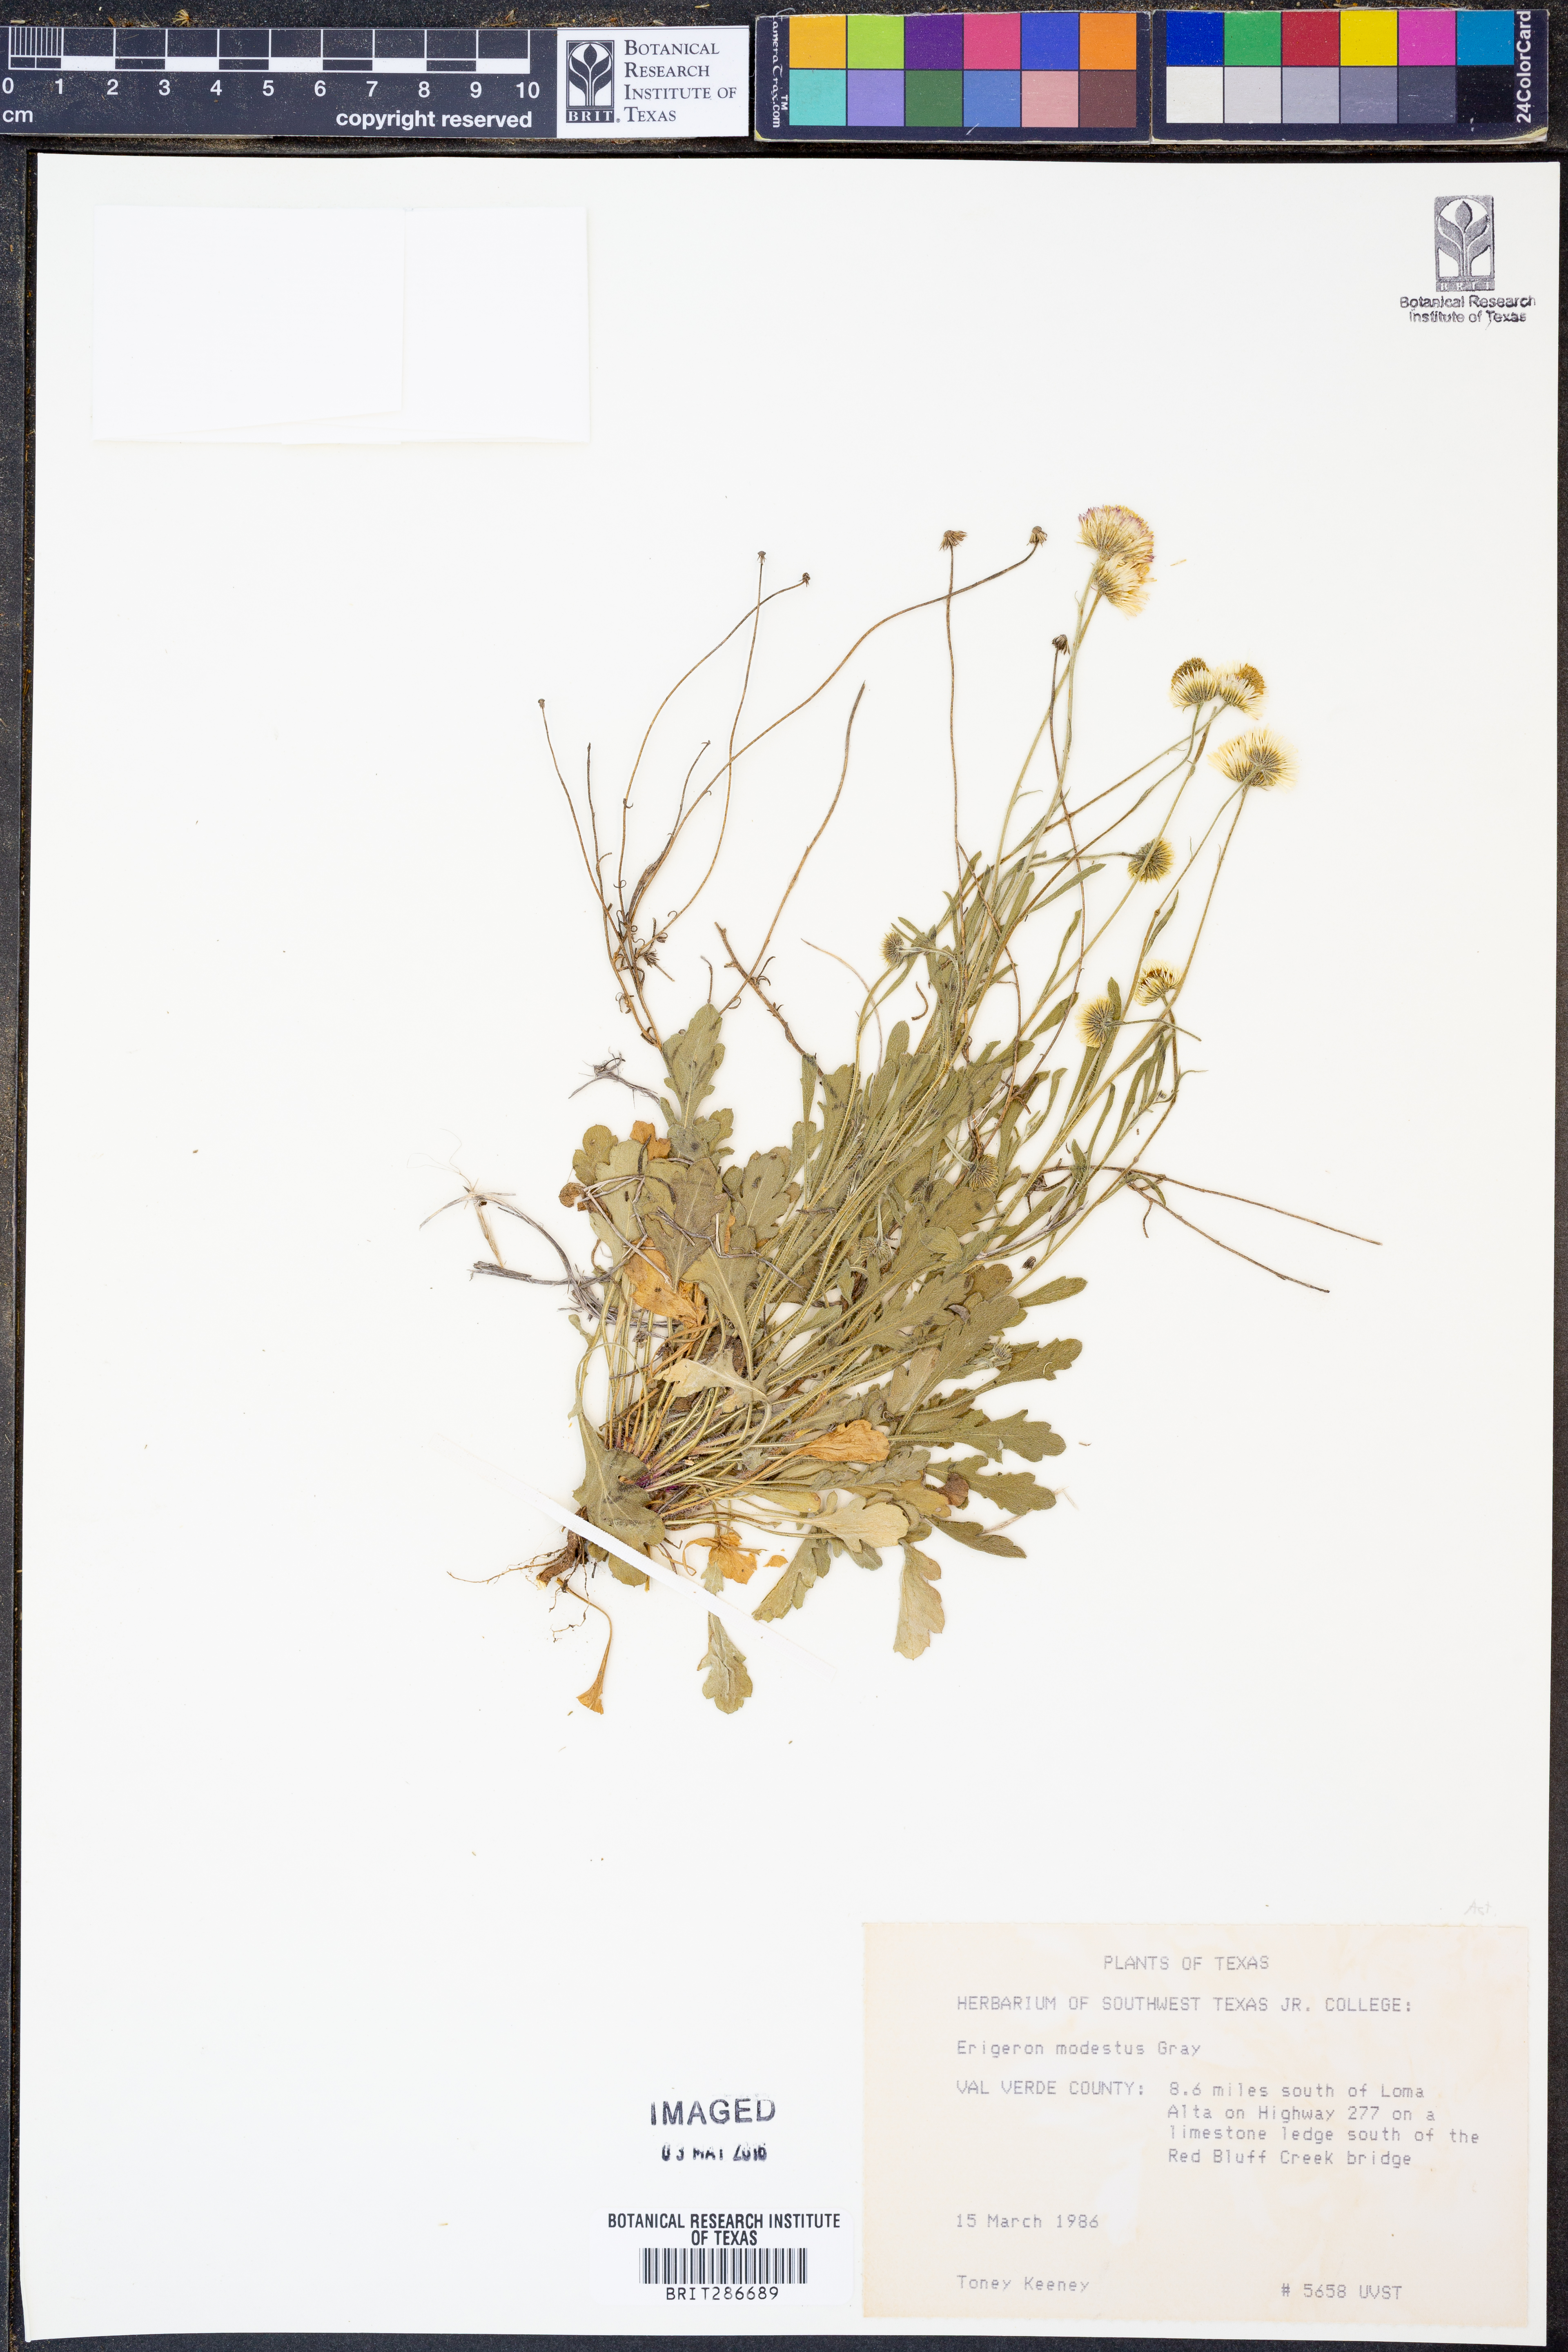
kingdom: Plantae
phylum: Tracheophyta
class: Magnoliopsida
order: Asterales
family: Asteraceae
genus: Erigeron
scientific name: Erigeron modestus
